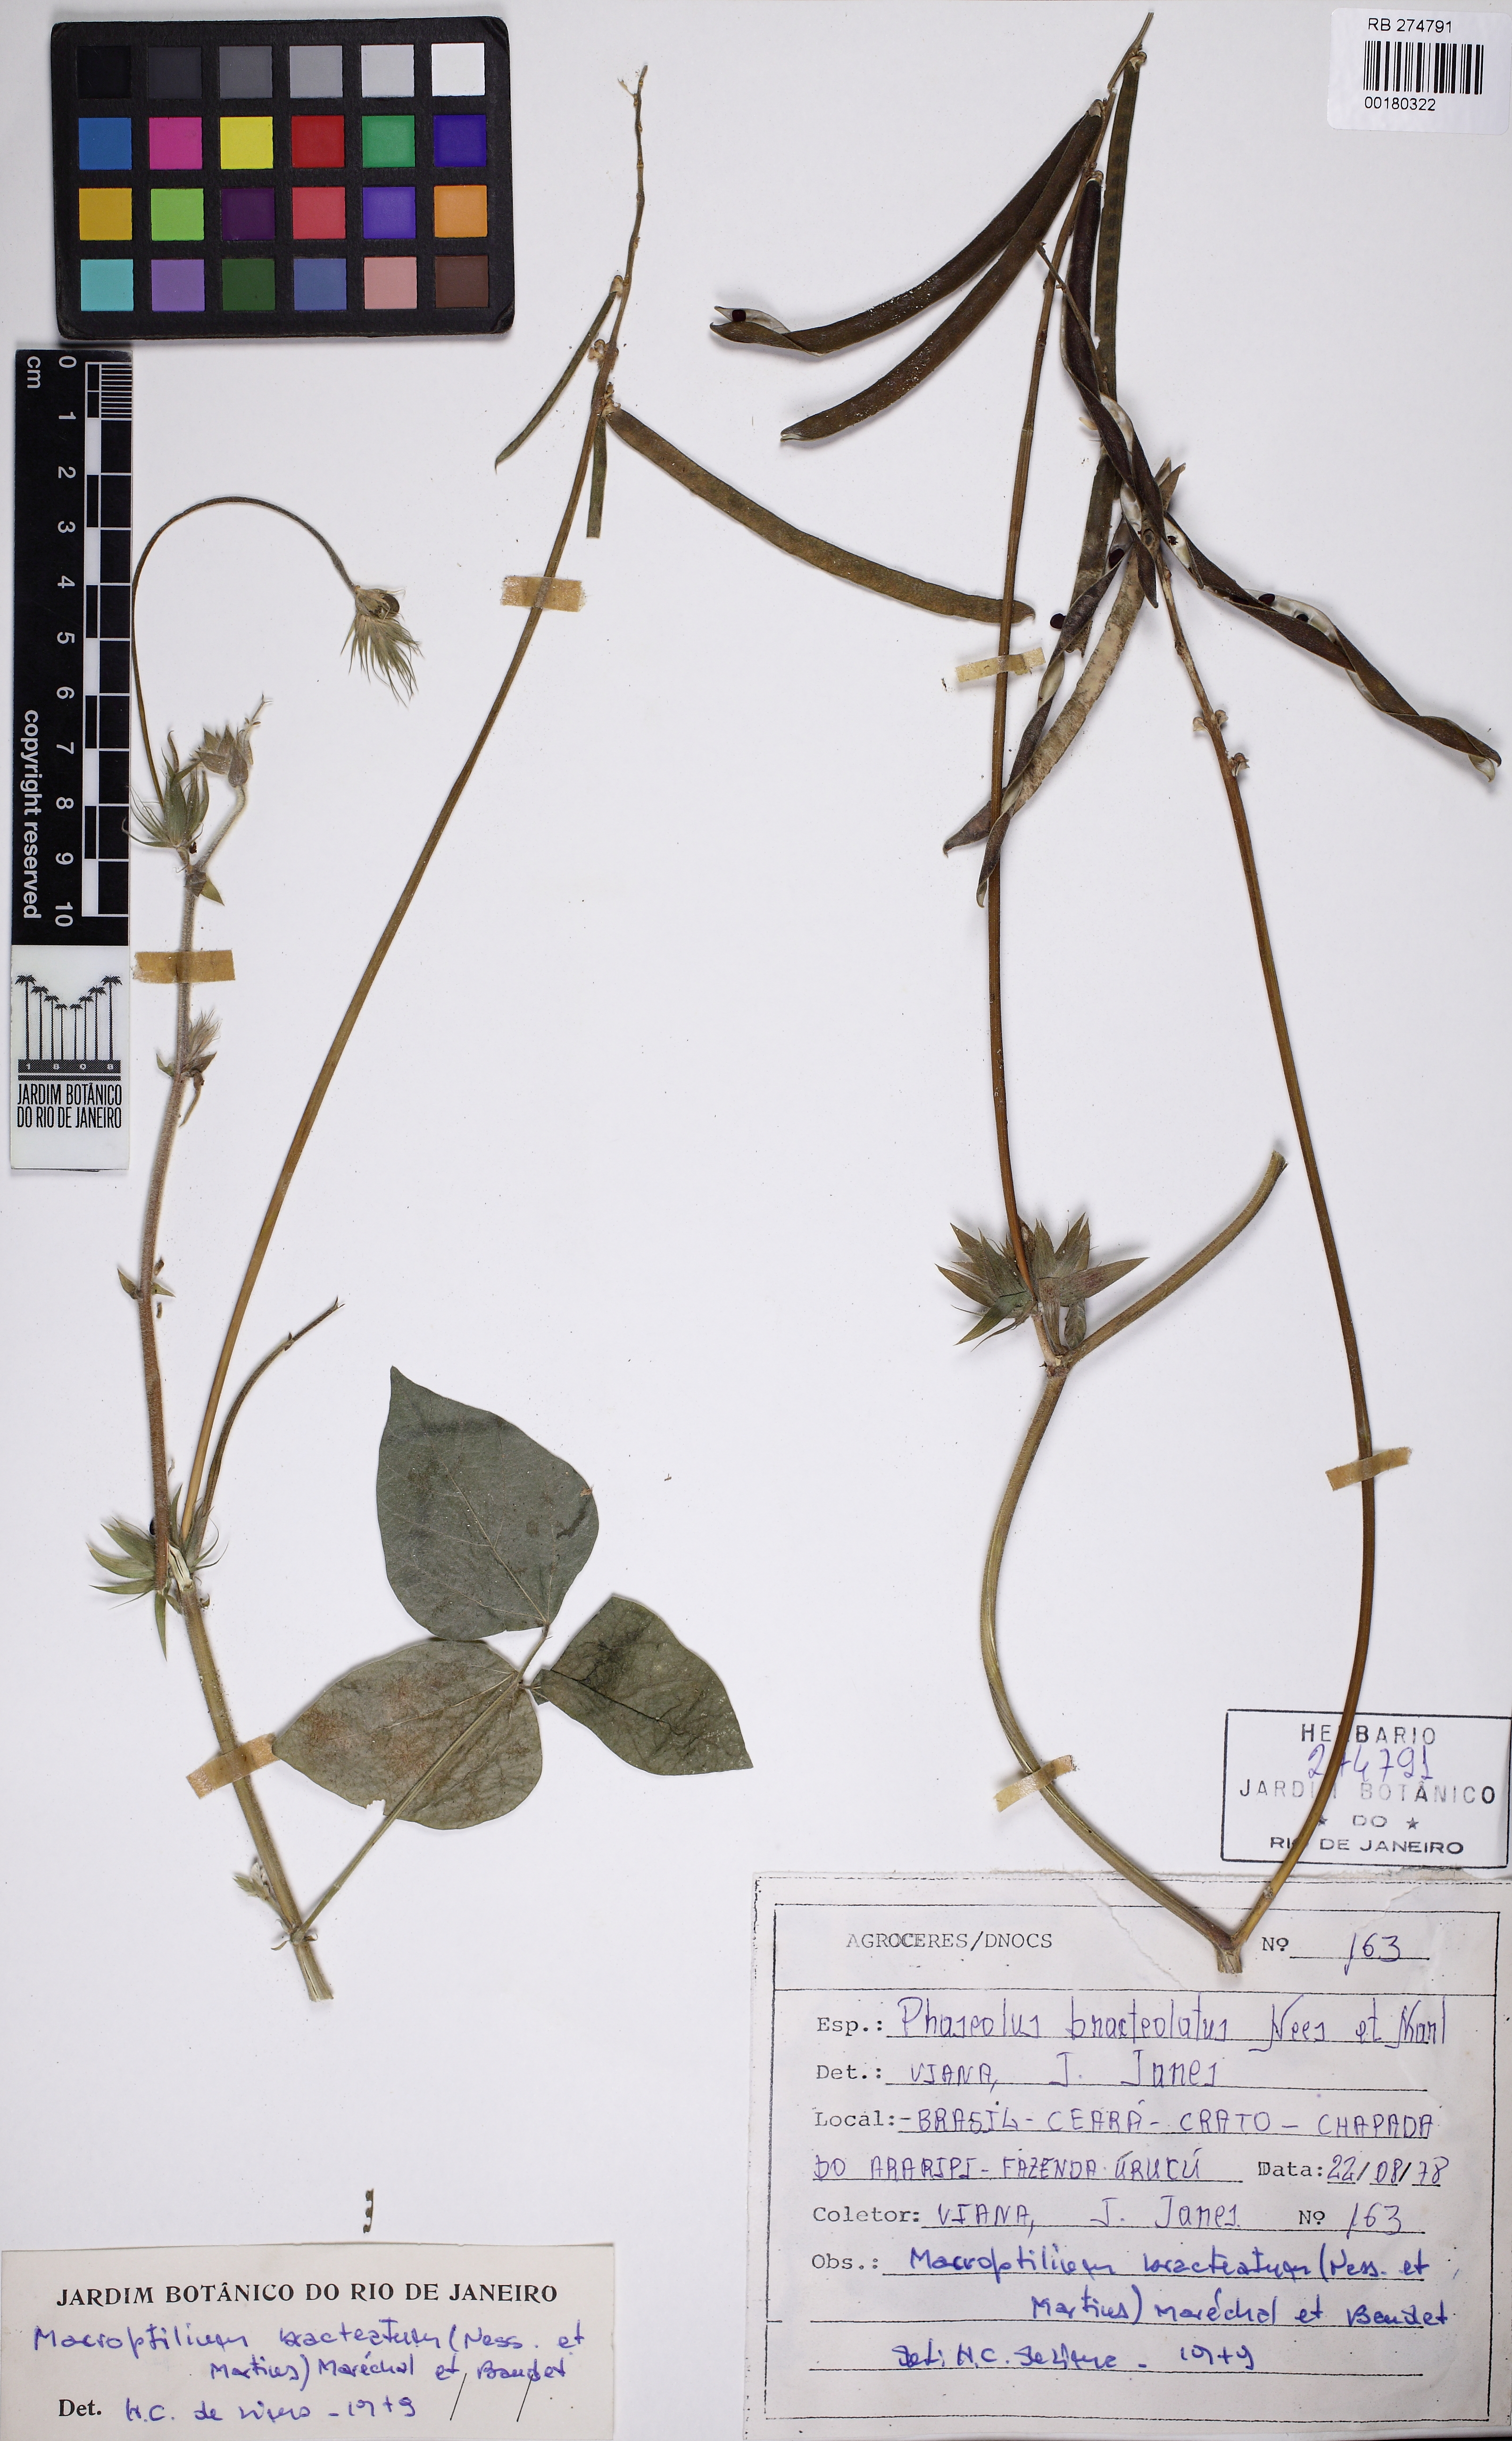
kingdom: Plantae
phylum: Tracheophyta
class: Magnoliopsida
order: Fabales
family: Fabaceae
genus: Macroptilium
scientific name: Macroptilium bracteatum
